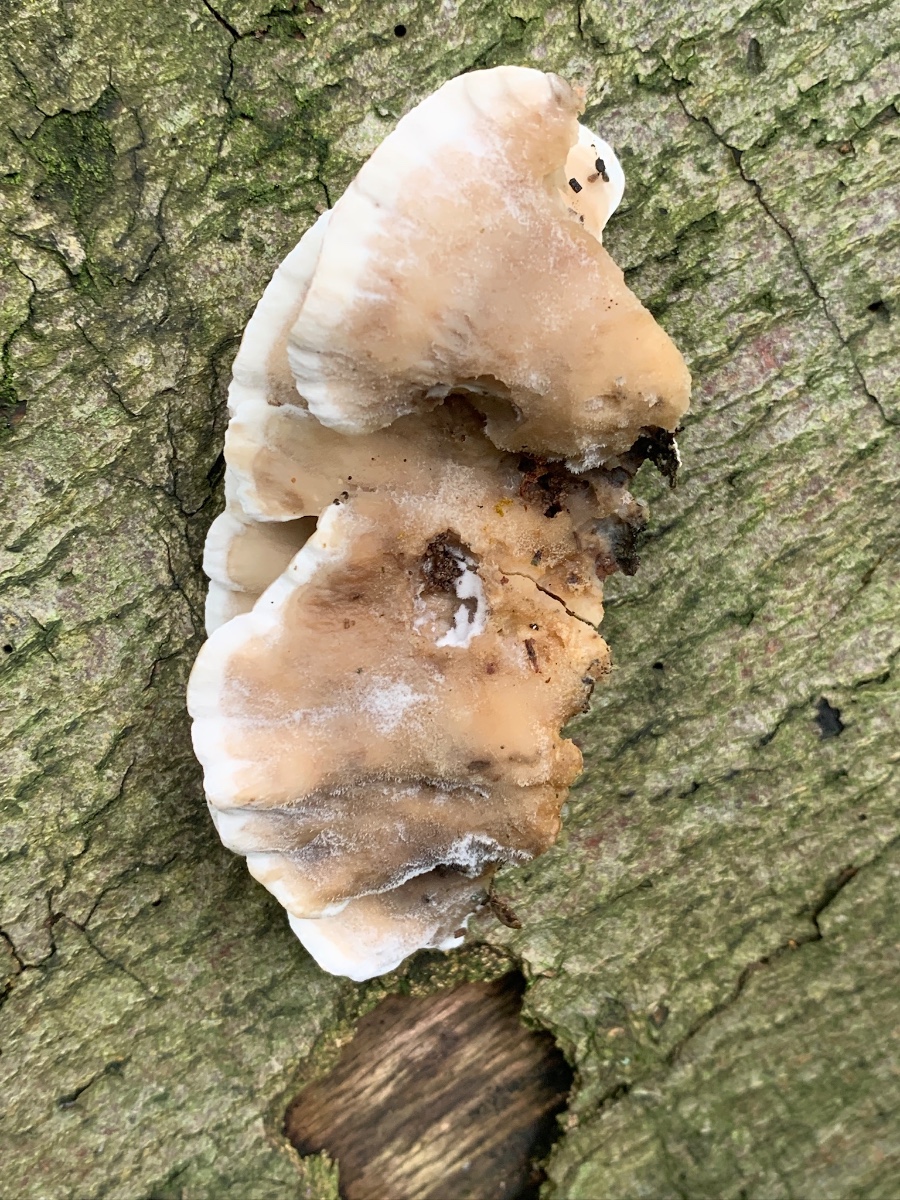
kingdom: Fungi
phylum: Basidiomycota
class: Agaricomycetes
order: Polyporales
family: Phanerochaetaceae
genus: Bjerkandera
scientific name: Bjerkandera adusta
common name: sveden sodporesvamp
